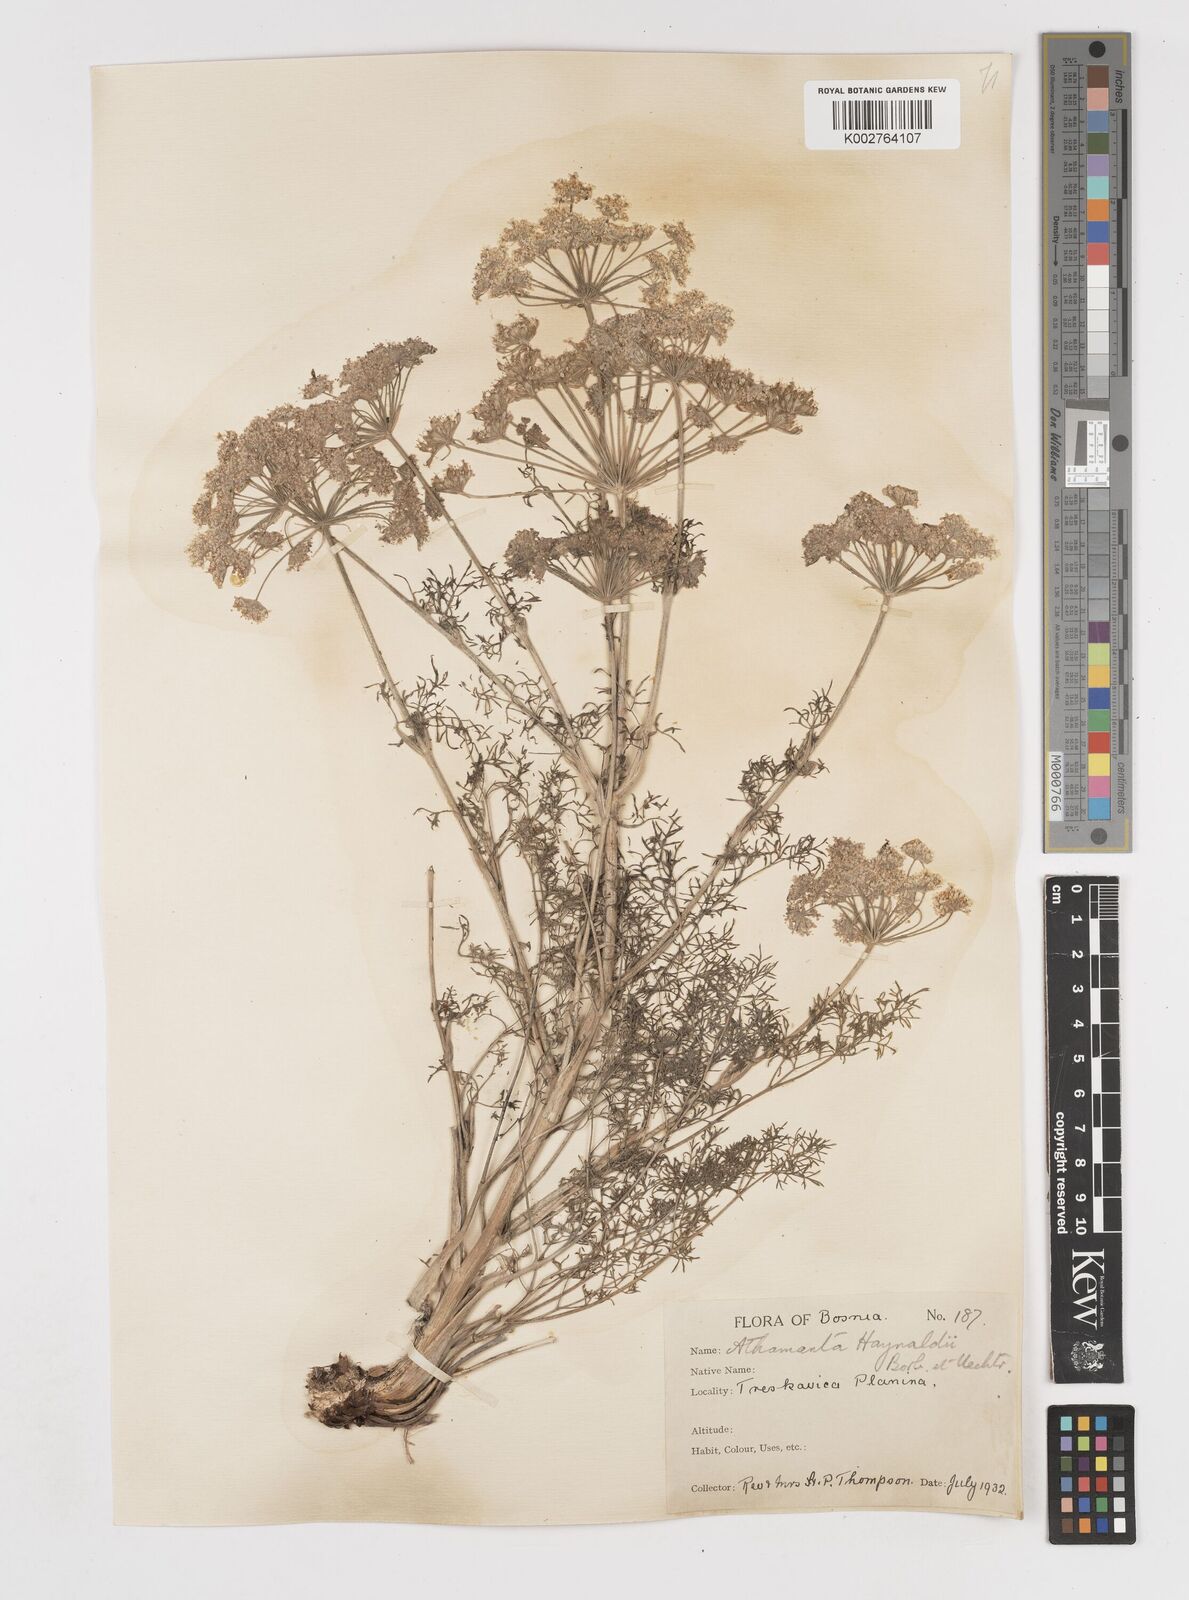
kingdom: Plantae
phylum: Tracheophyta
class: Magnoliopsida
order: Apiales
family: Apiaceae
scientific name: Apiaceae
